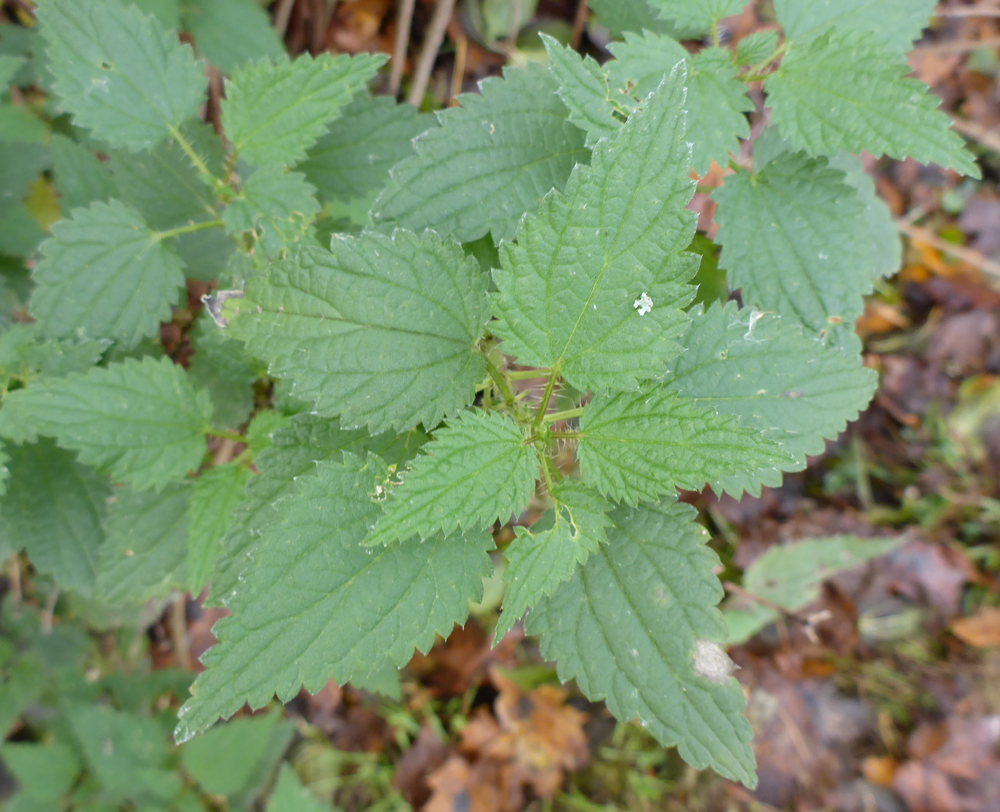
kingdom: Plantae
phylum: Tracheophyta
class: Magnoliopsida
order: Rosales
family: Urticaceae
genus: Urtica
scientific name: Urtica dioica
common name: Common nettle
